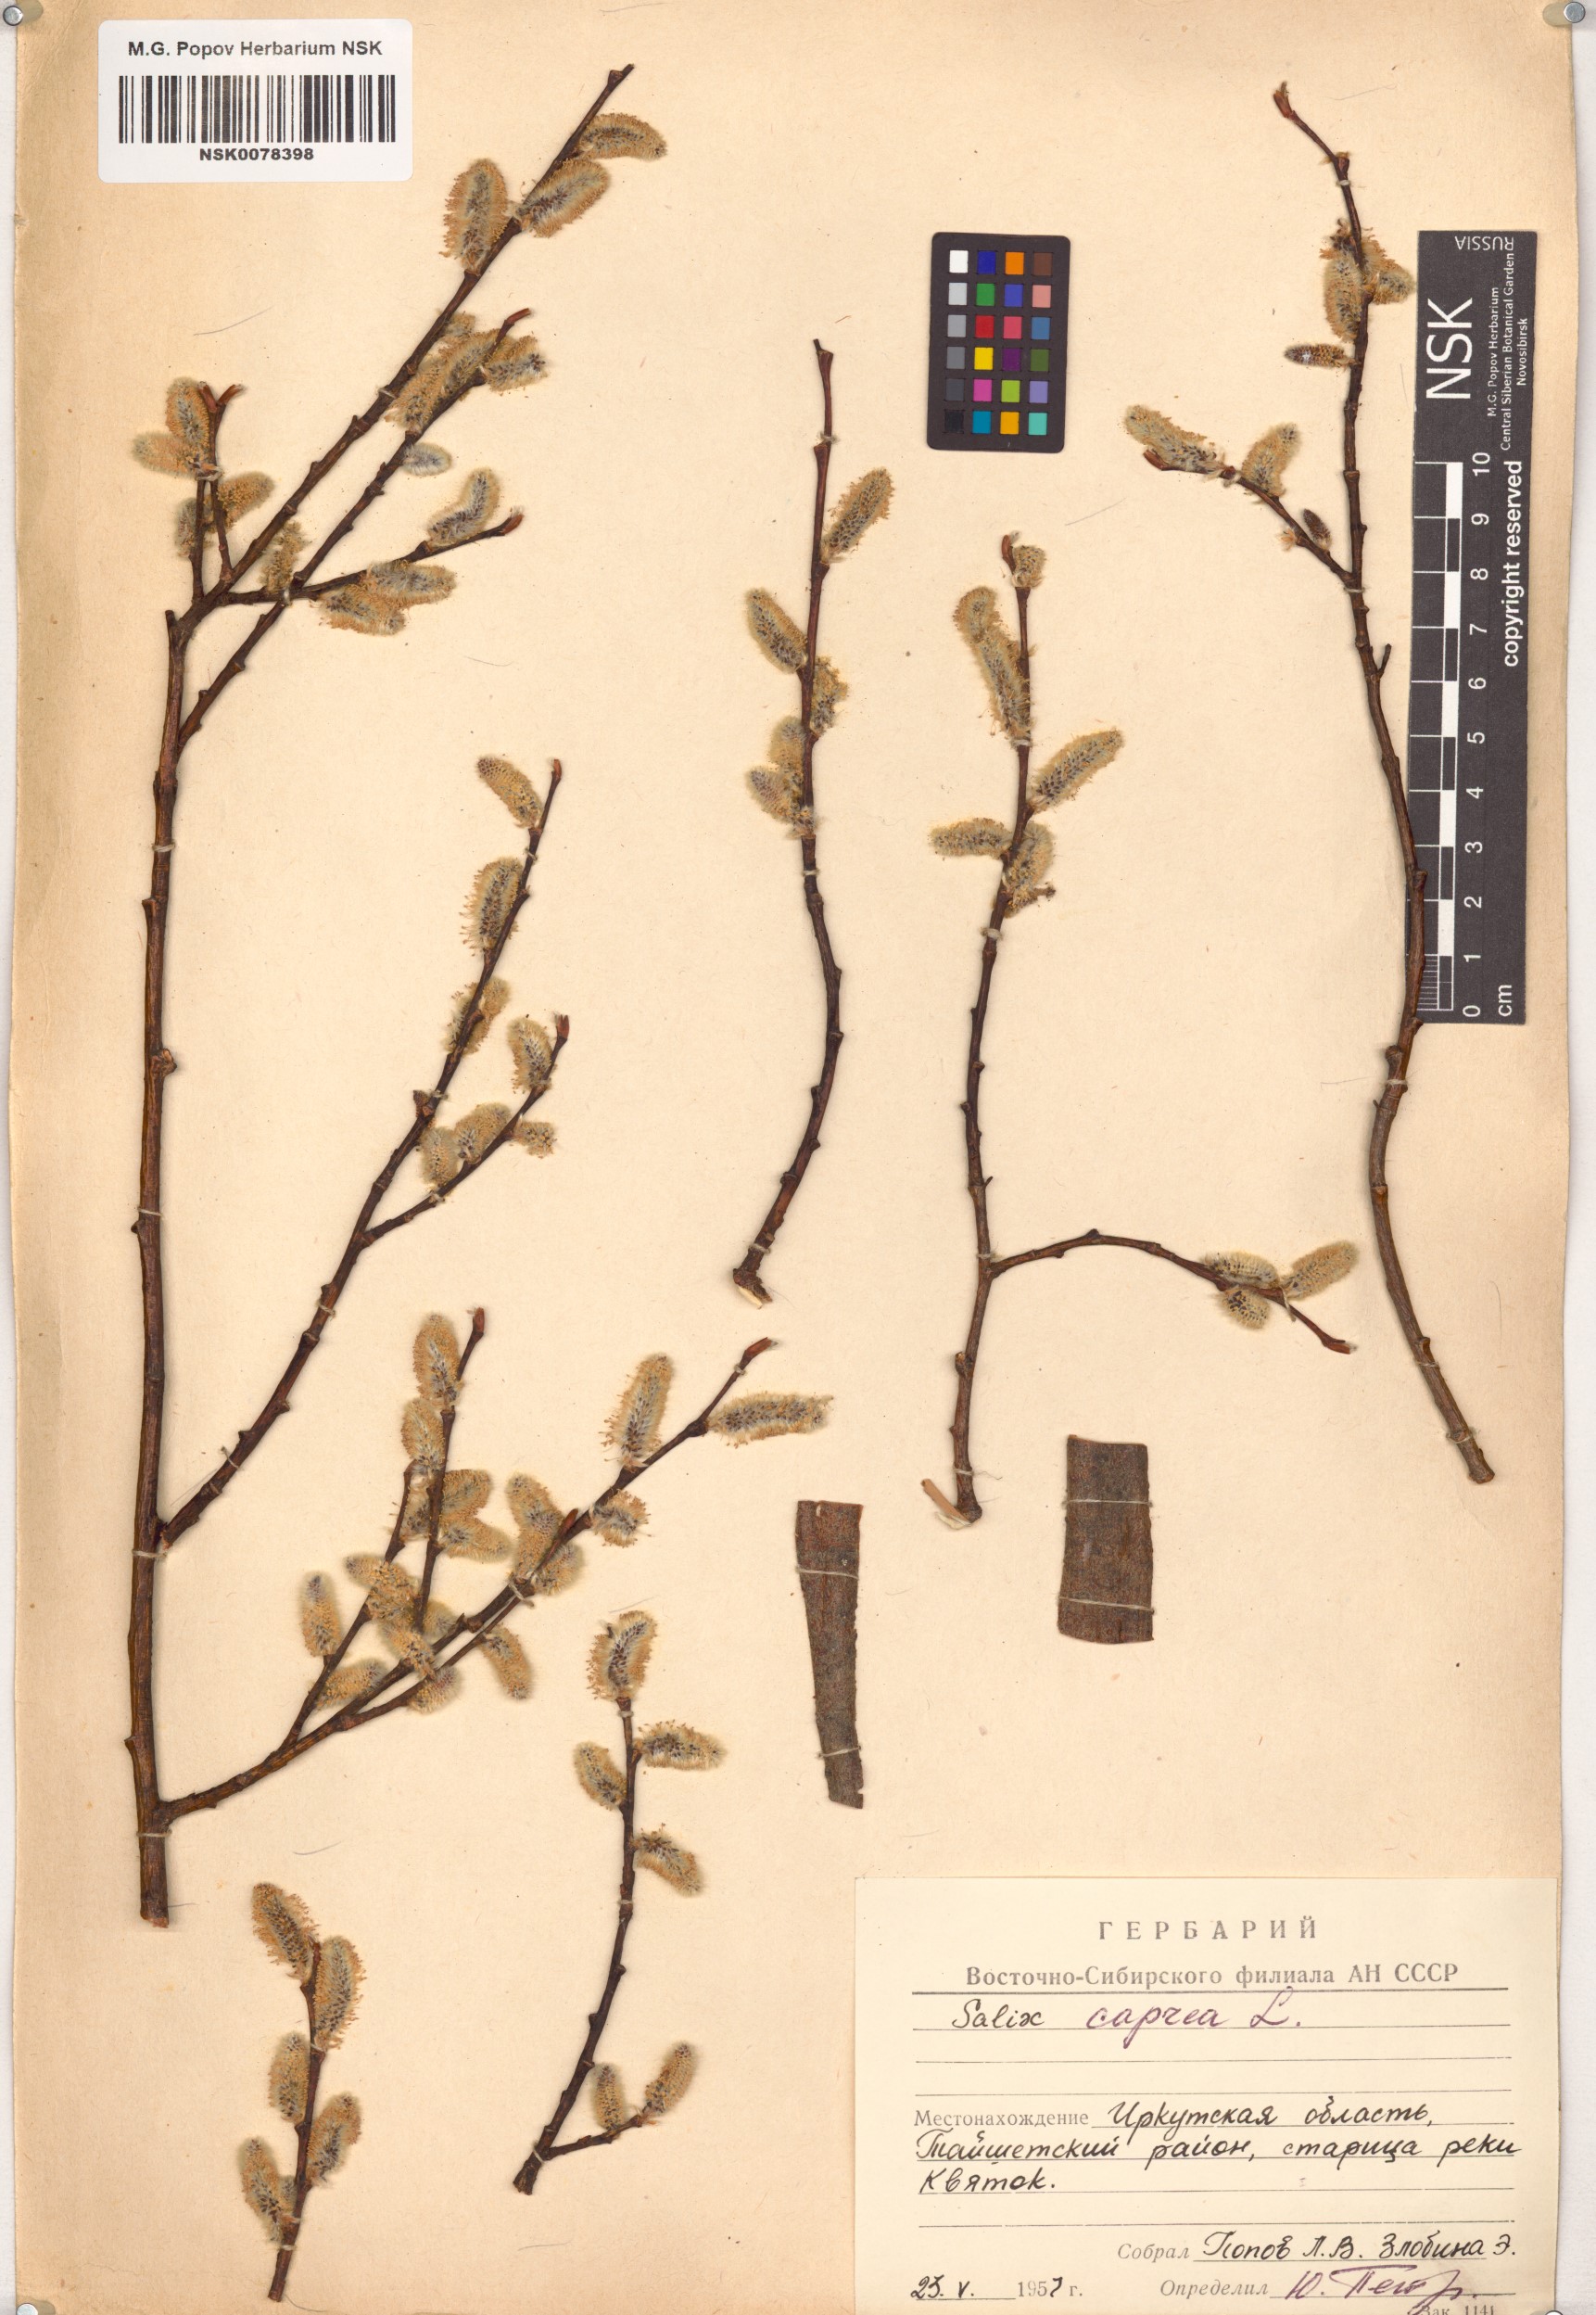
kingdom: Plantae
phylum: Tracheophyta
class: Magnoliopsida
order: Malpighiales
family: Salicaceae
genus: Salix
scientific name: Salix caprea
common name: Goat willow
